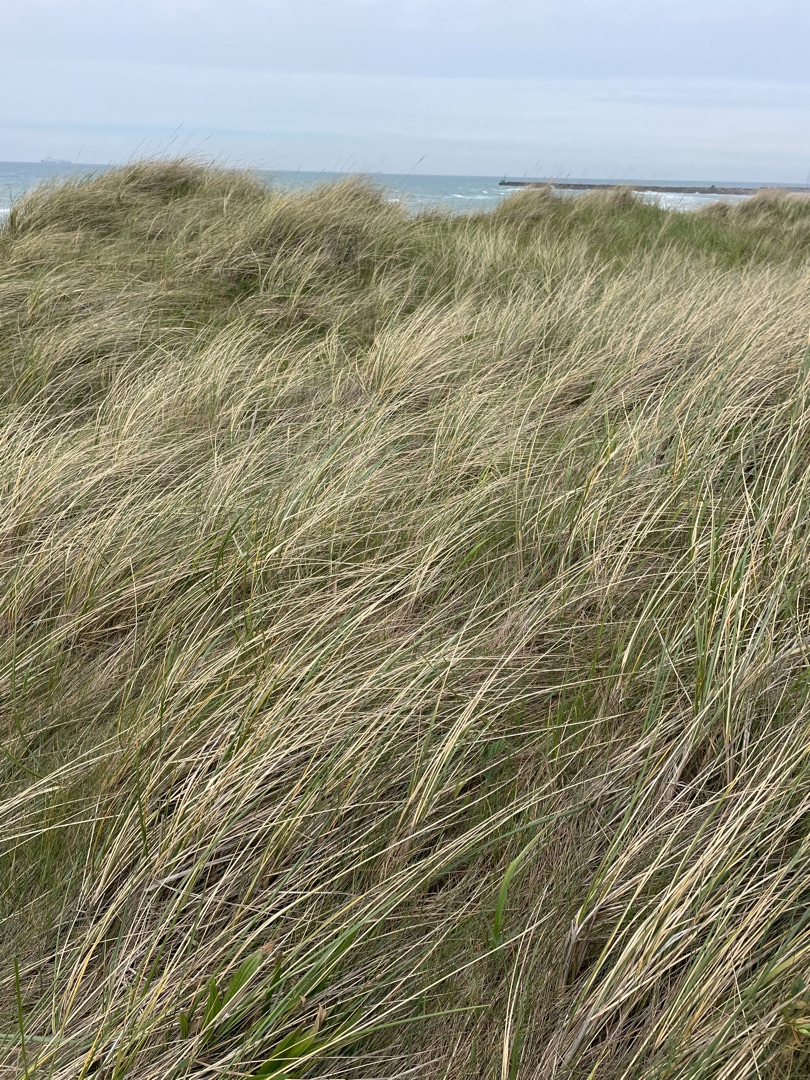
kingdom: Plantae
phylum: Tracheophyta
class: Liliopsida
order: Poales
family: Poaceae
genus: Calamagrostis
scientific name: Calamagrostis arenaria
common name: Sand-hjælme
